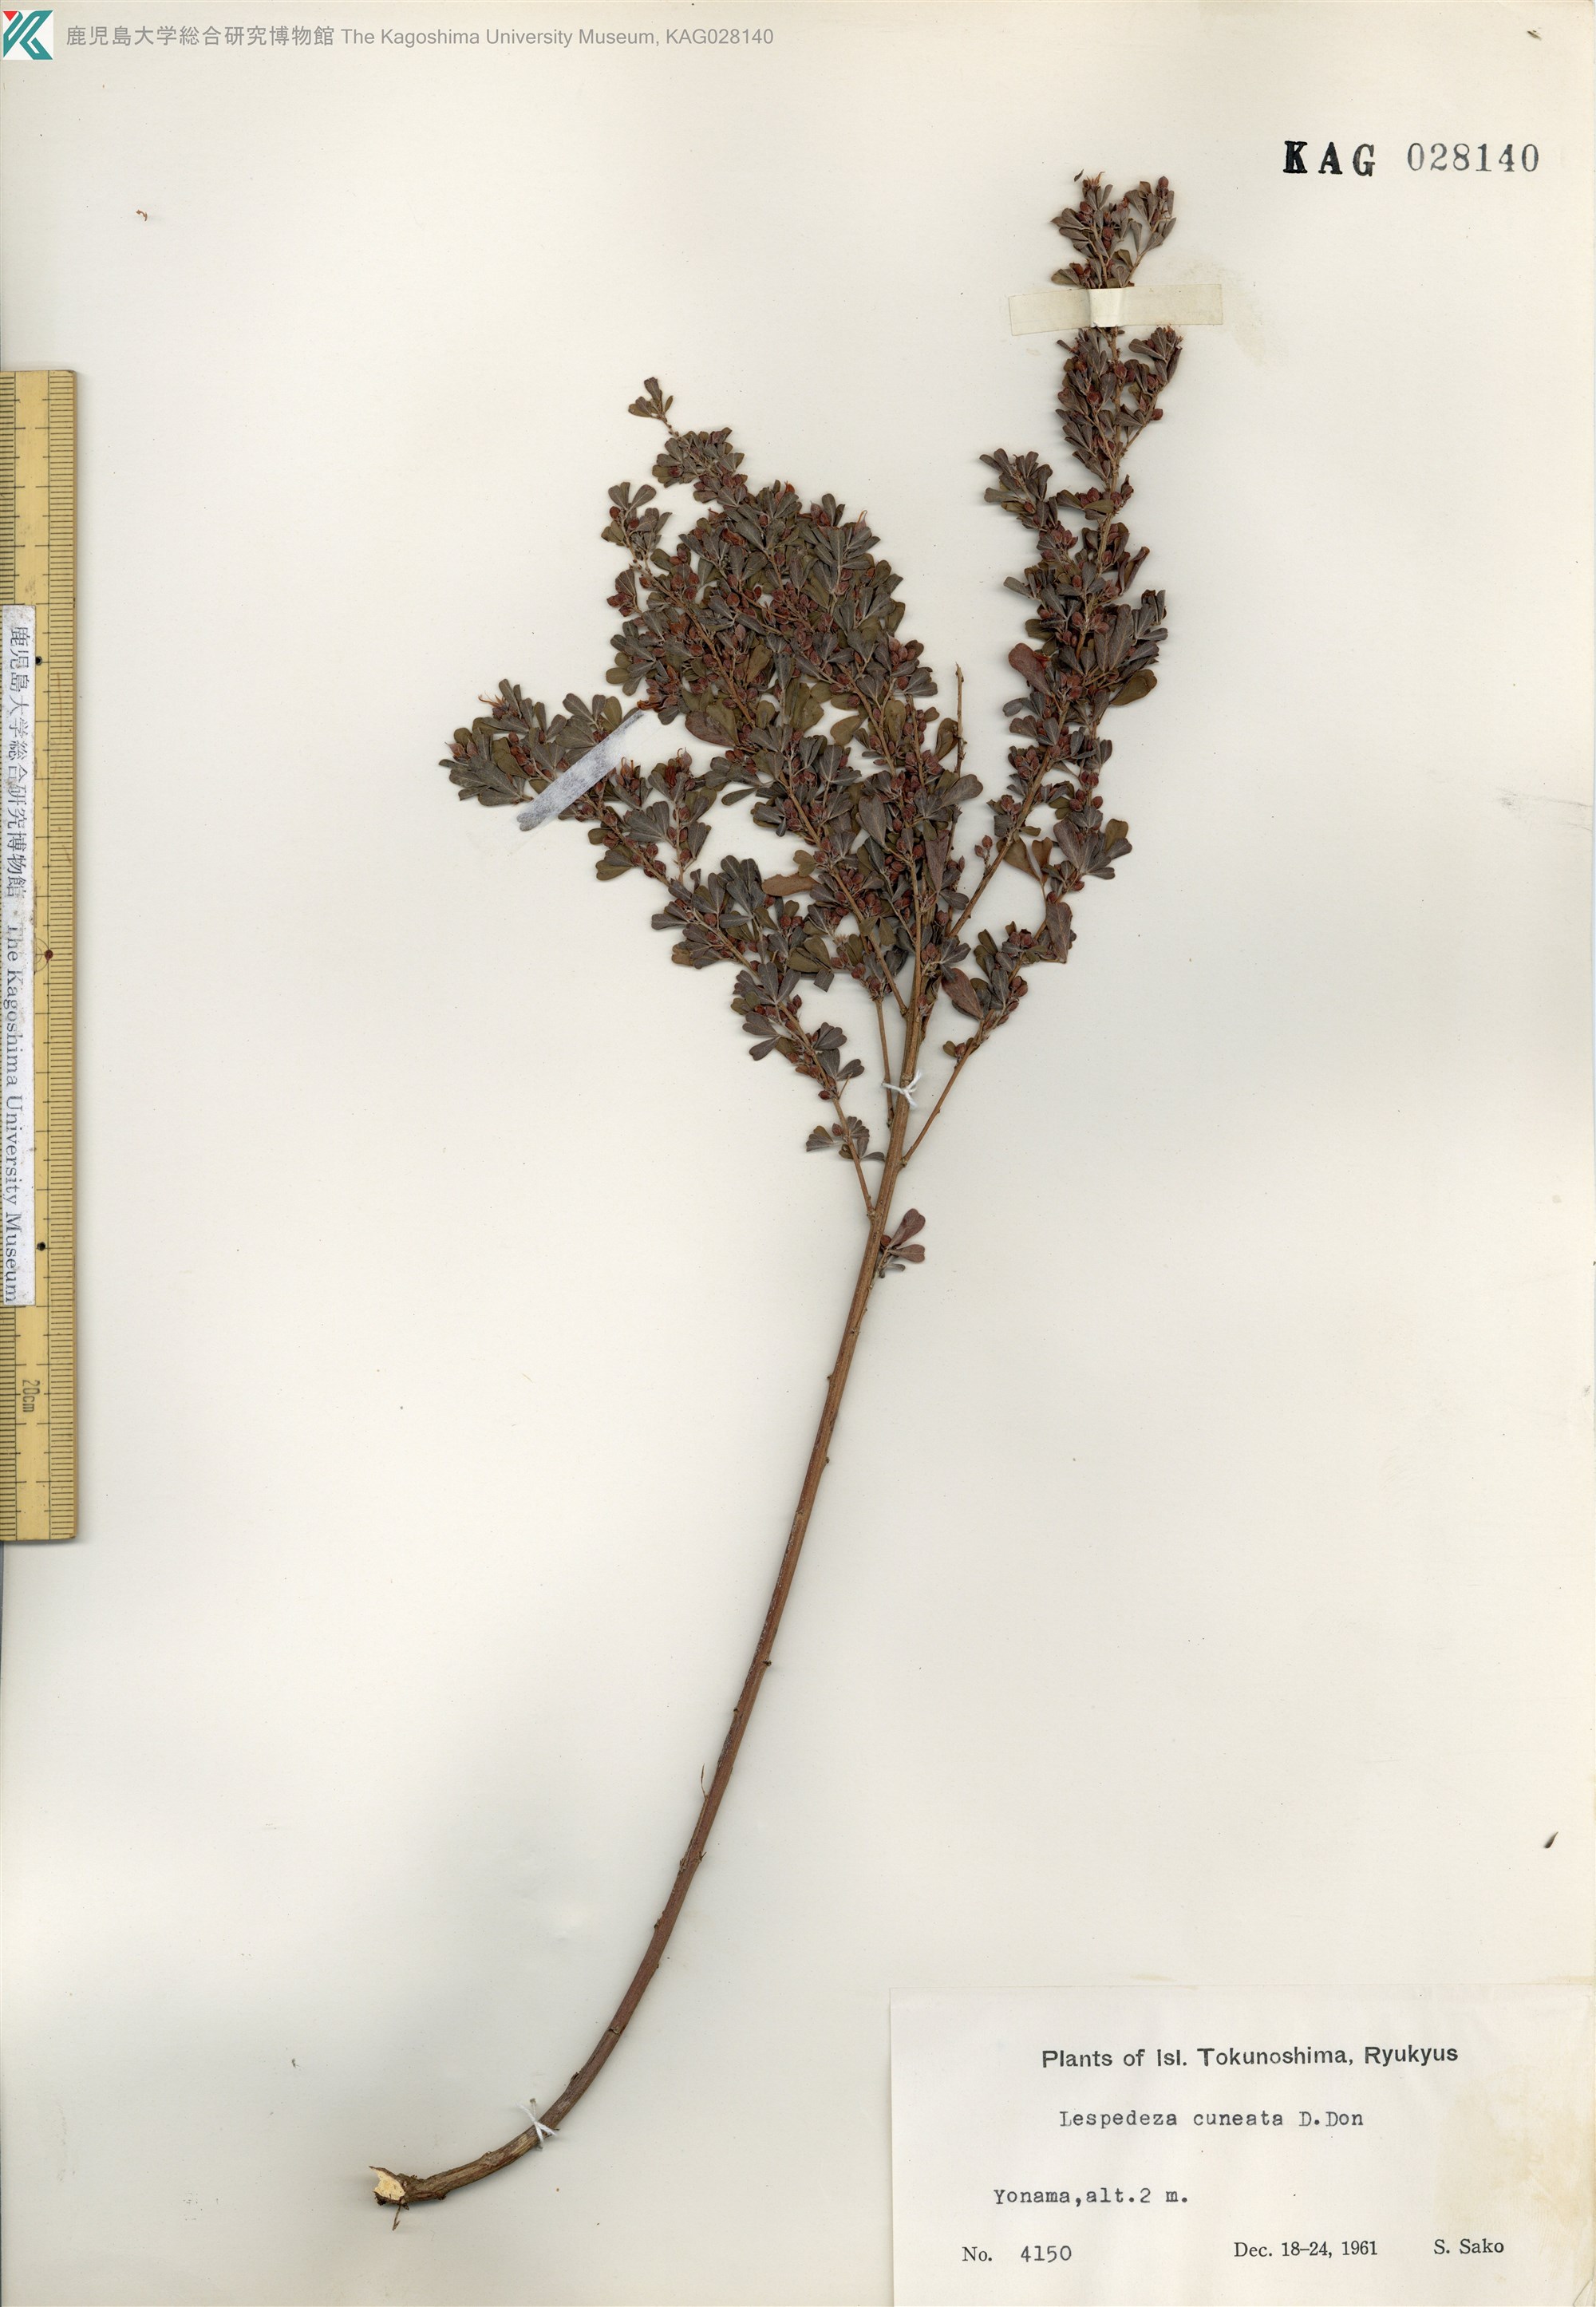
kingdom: Plantae
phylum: Tracheophyta
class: Magnoliopsida
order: Fabales
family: Fabaceae
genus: Lespedeza
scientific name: Lespedeza cuneata
